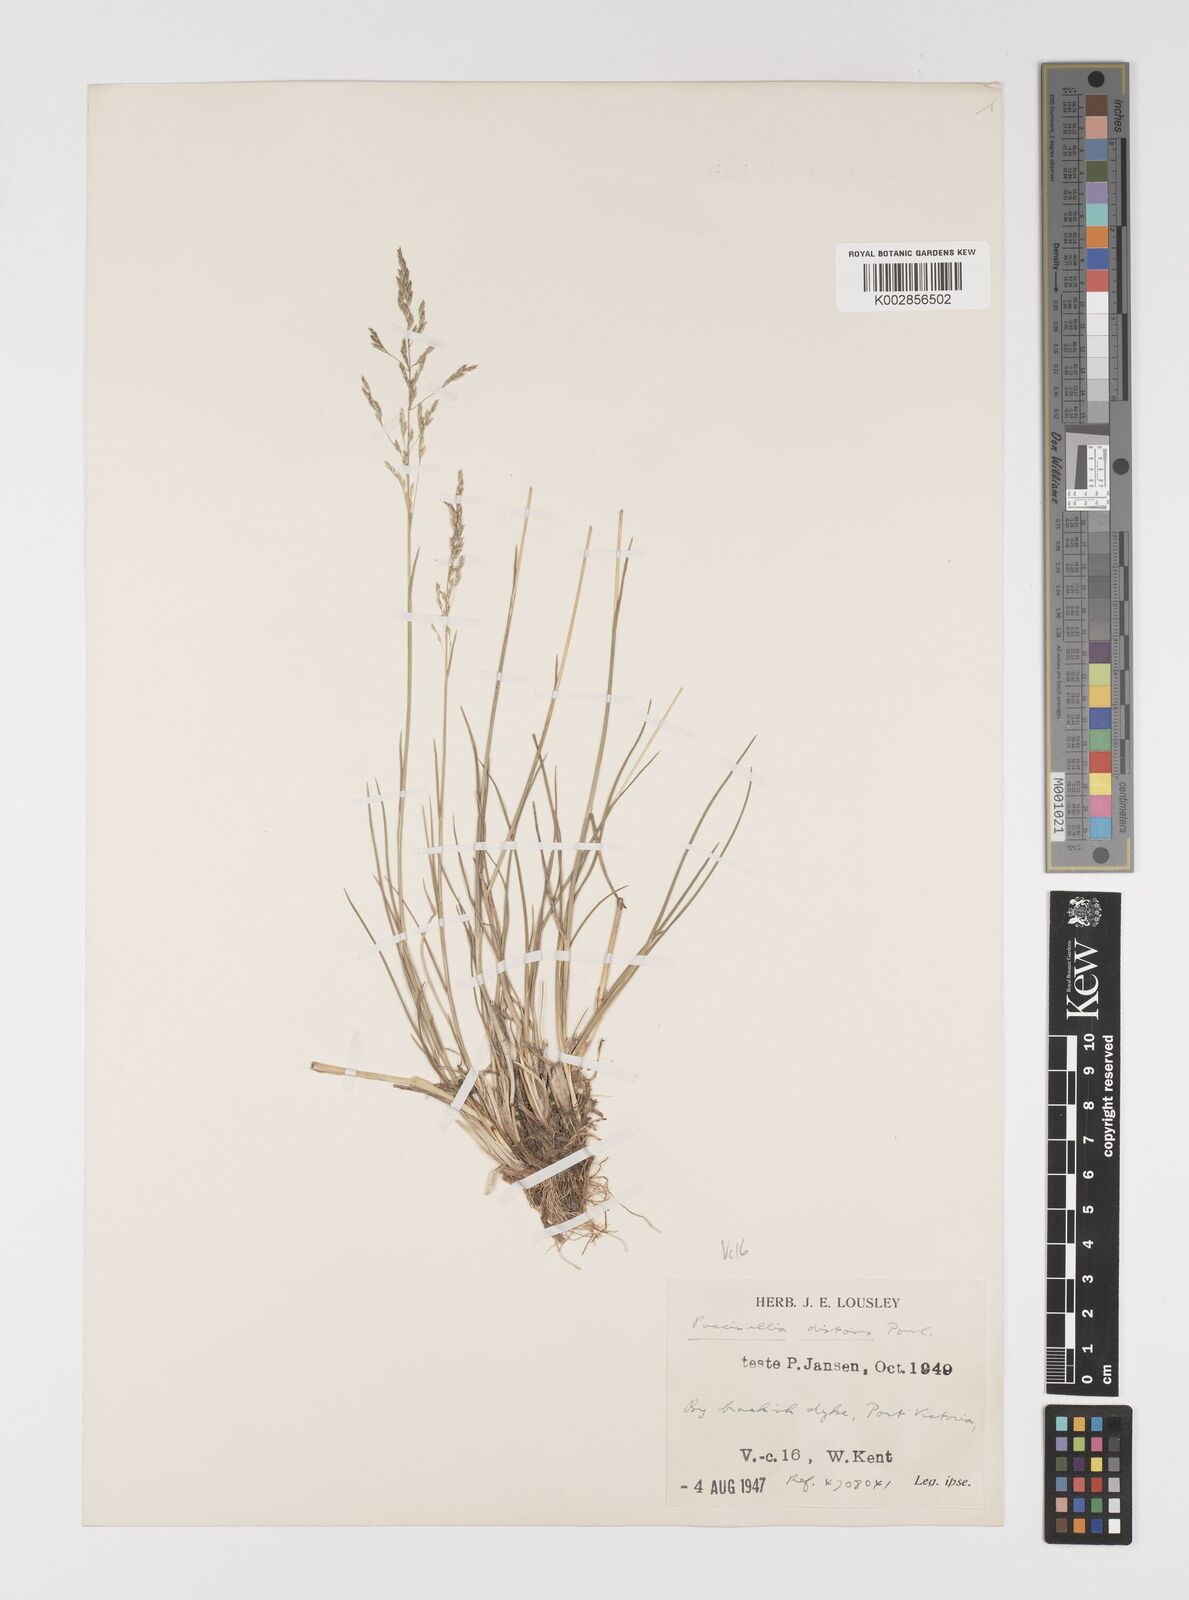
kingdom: Plantae
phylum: Tracheophyta
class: Liliopsida
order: Poales
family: Poaceae
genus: Puccinellia
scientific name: Puccinellia distans
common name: Weeping alkaligrass
